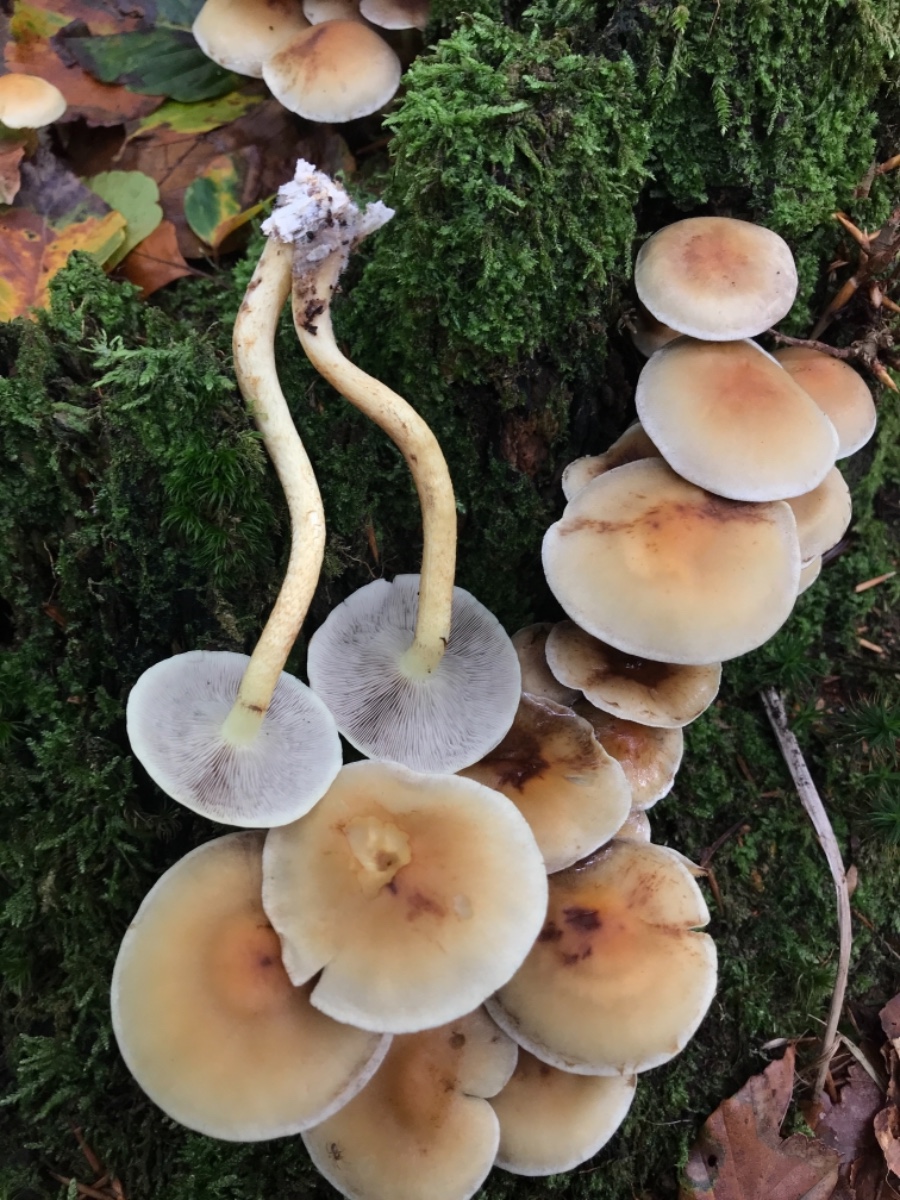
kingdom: Fungi
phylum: Basidiomycota
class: Agaricomycetes
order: Agaricales
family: Strophariaceae
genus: Hypholoma
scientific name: Hypholoma fasciculare
